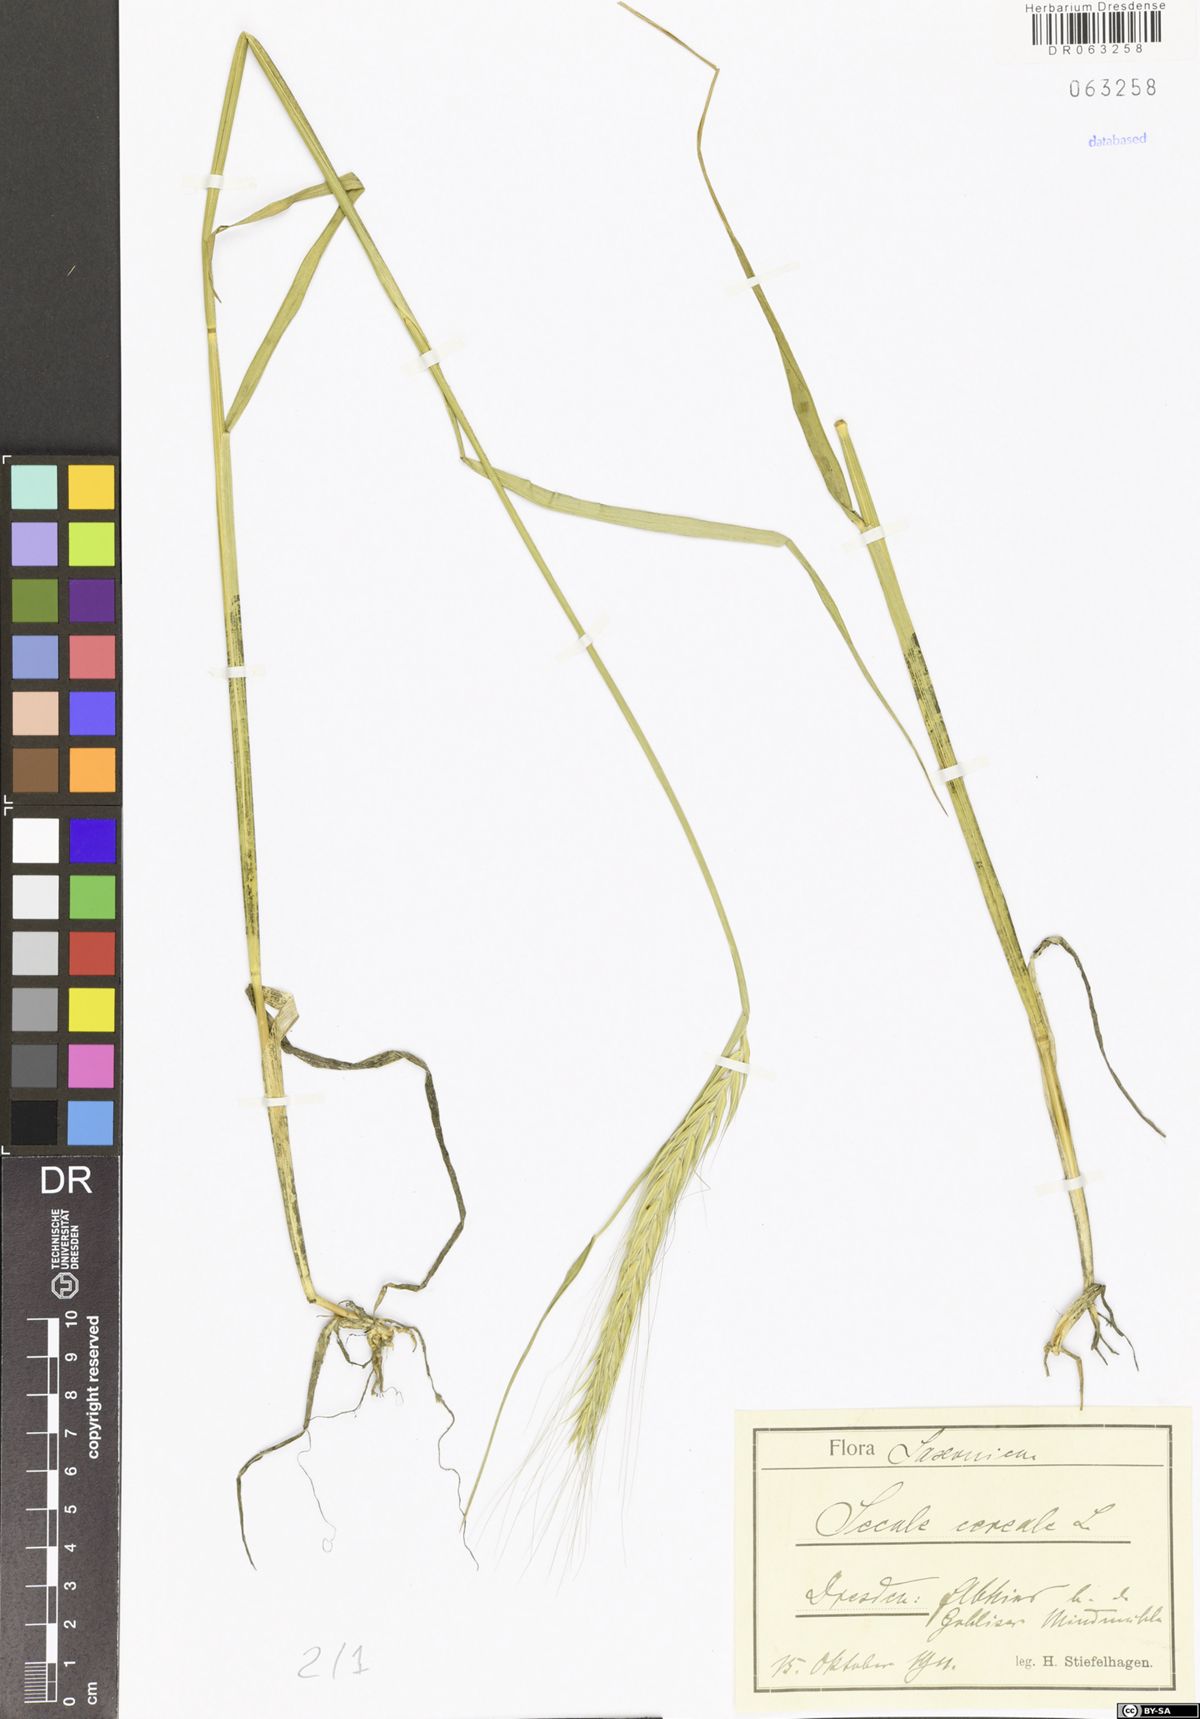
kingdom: Plantae
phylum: Tracheophyta
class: Liliopsida
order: Poales
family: Poaceae
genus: Secale
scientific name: Secale cereale
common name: Rye
